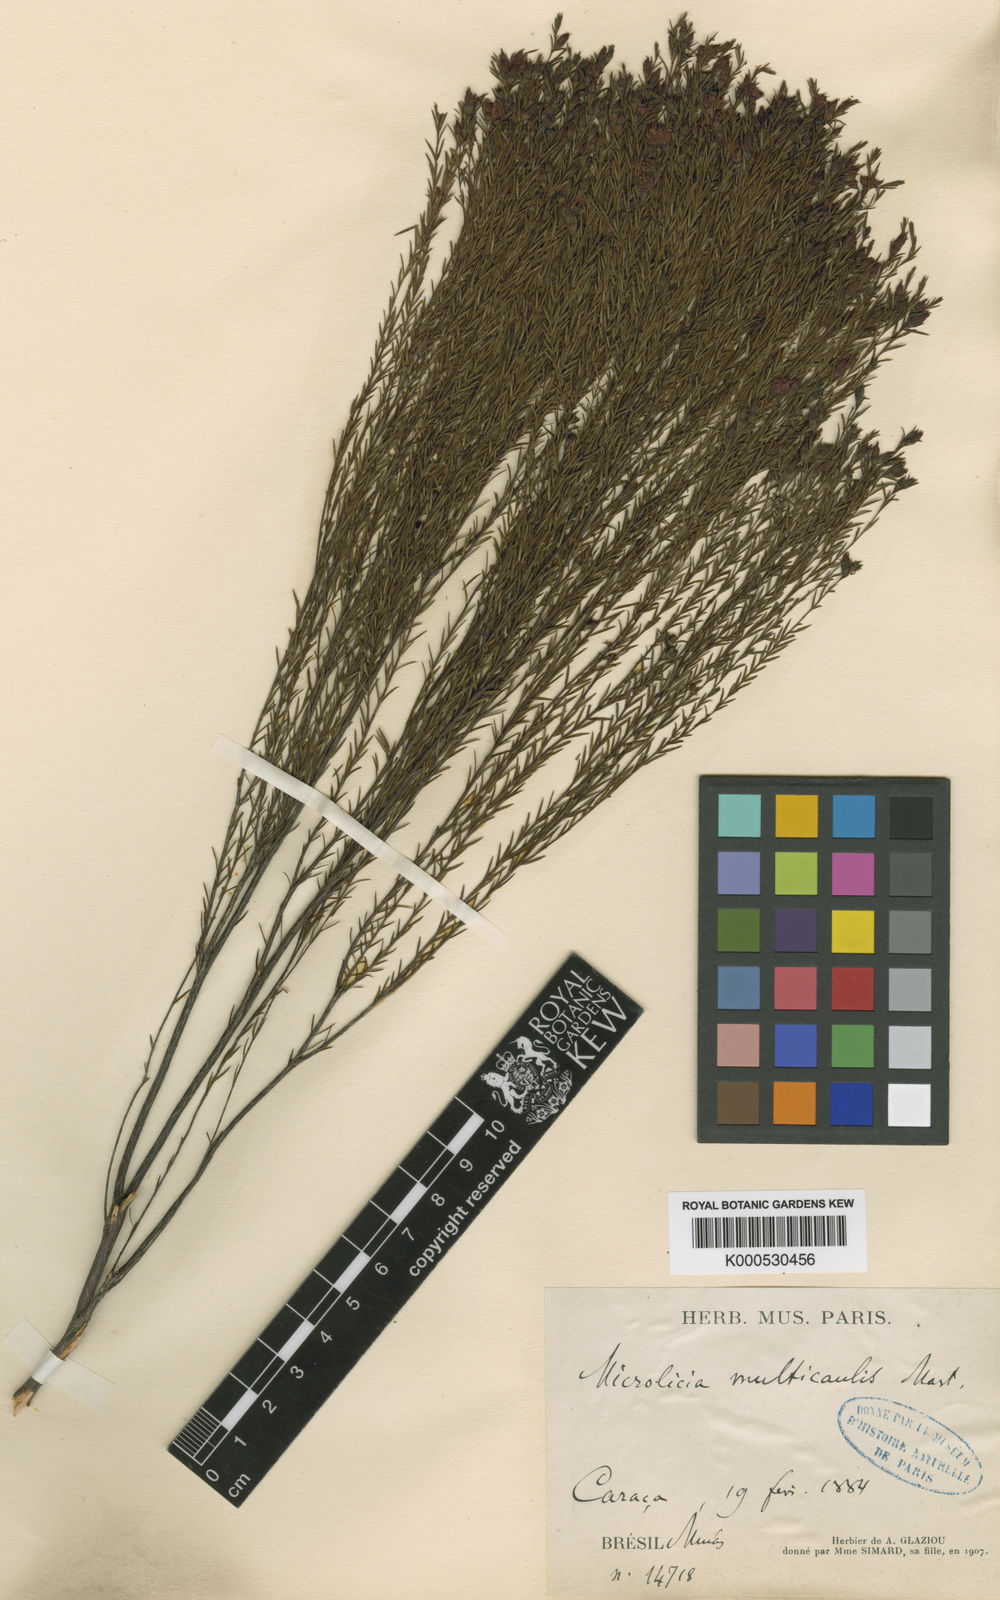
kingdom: Plantae
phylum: Tracheophyta
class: Magnoliopsida
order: Myrtales
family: Melastomataceae
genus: Microlicia
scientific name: Microlicia multicaulis
